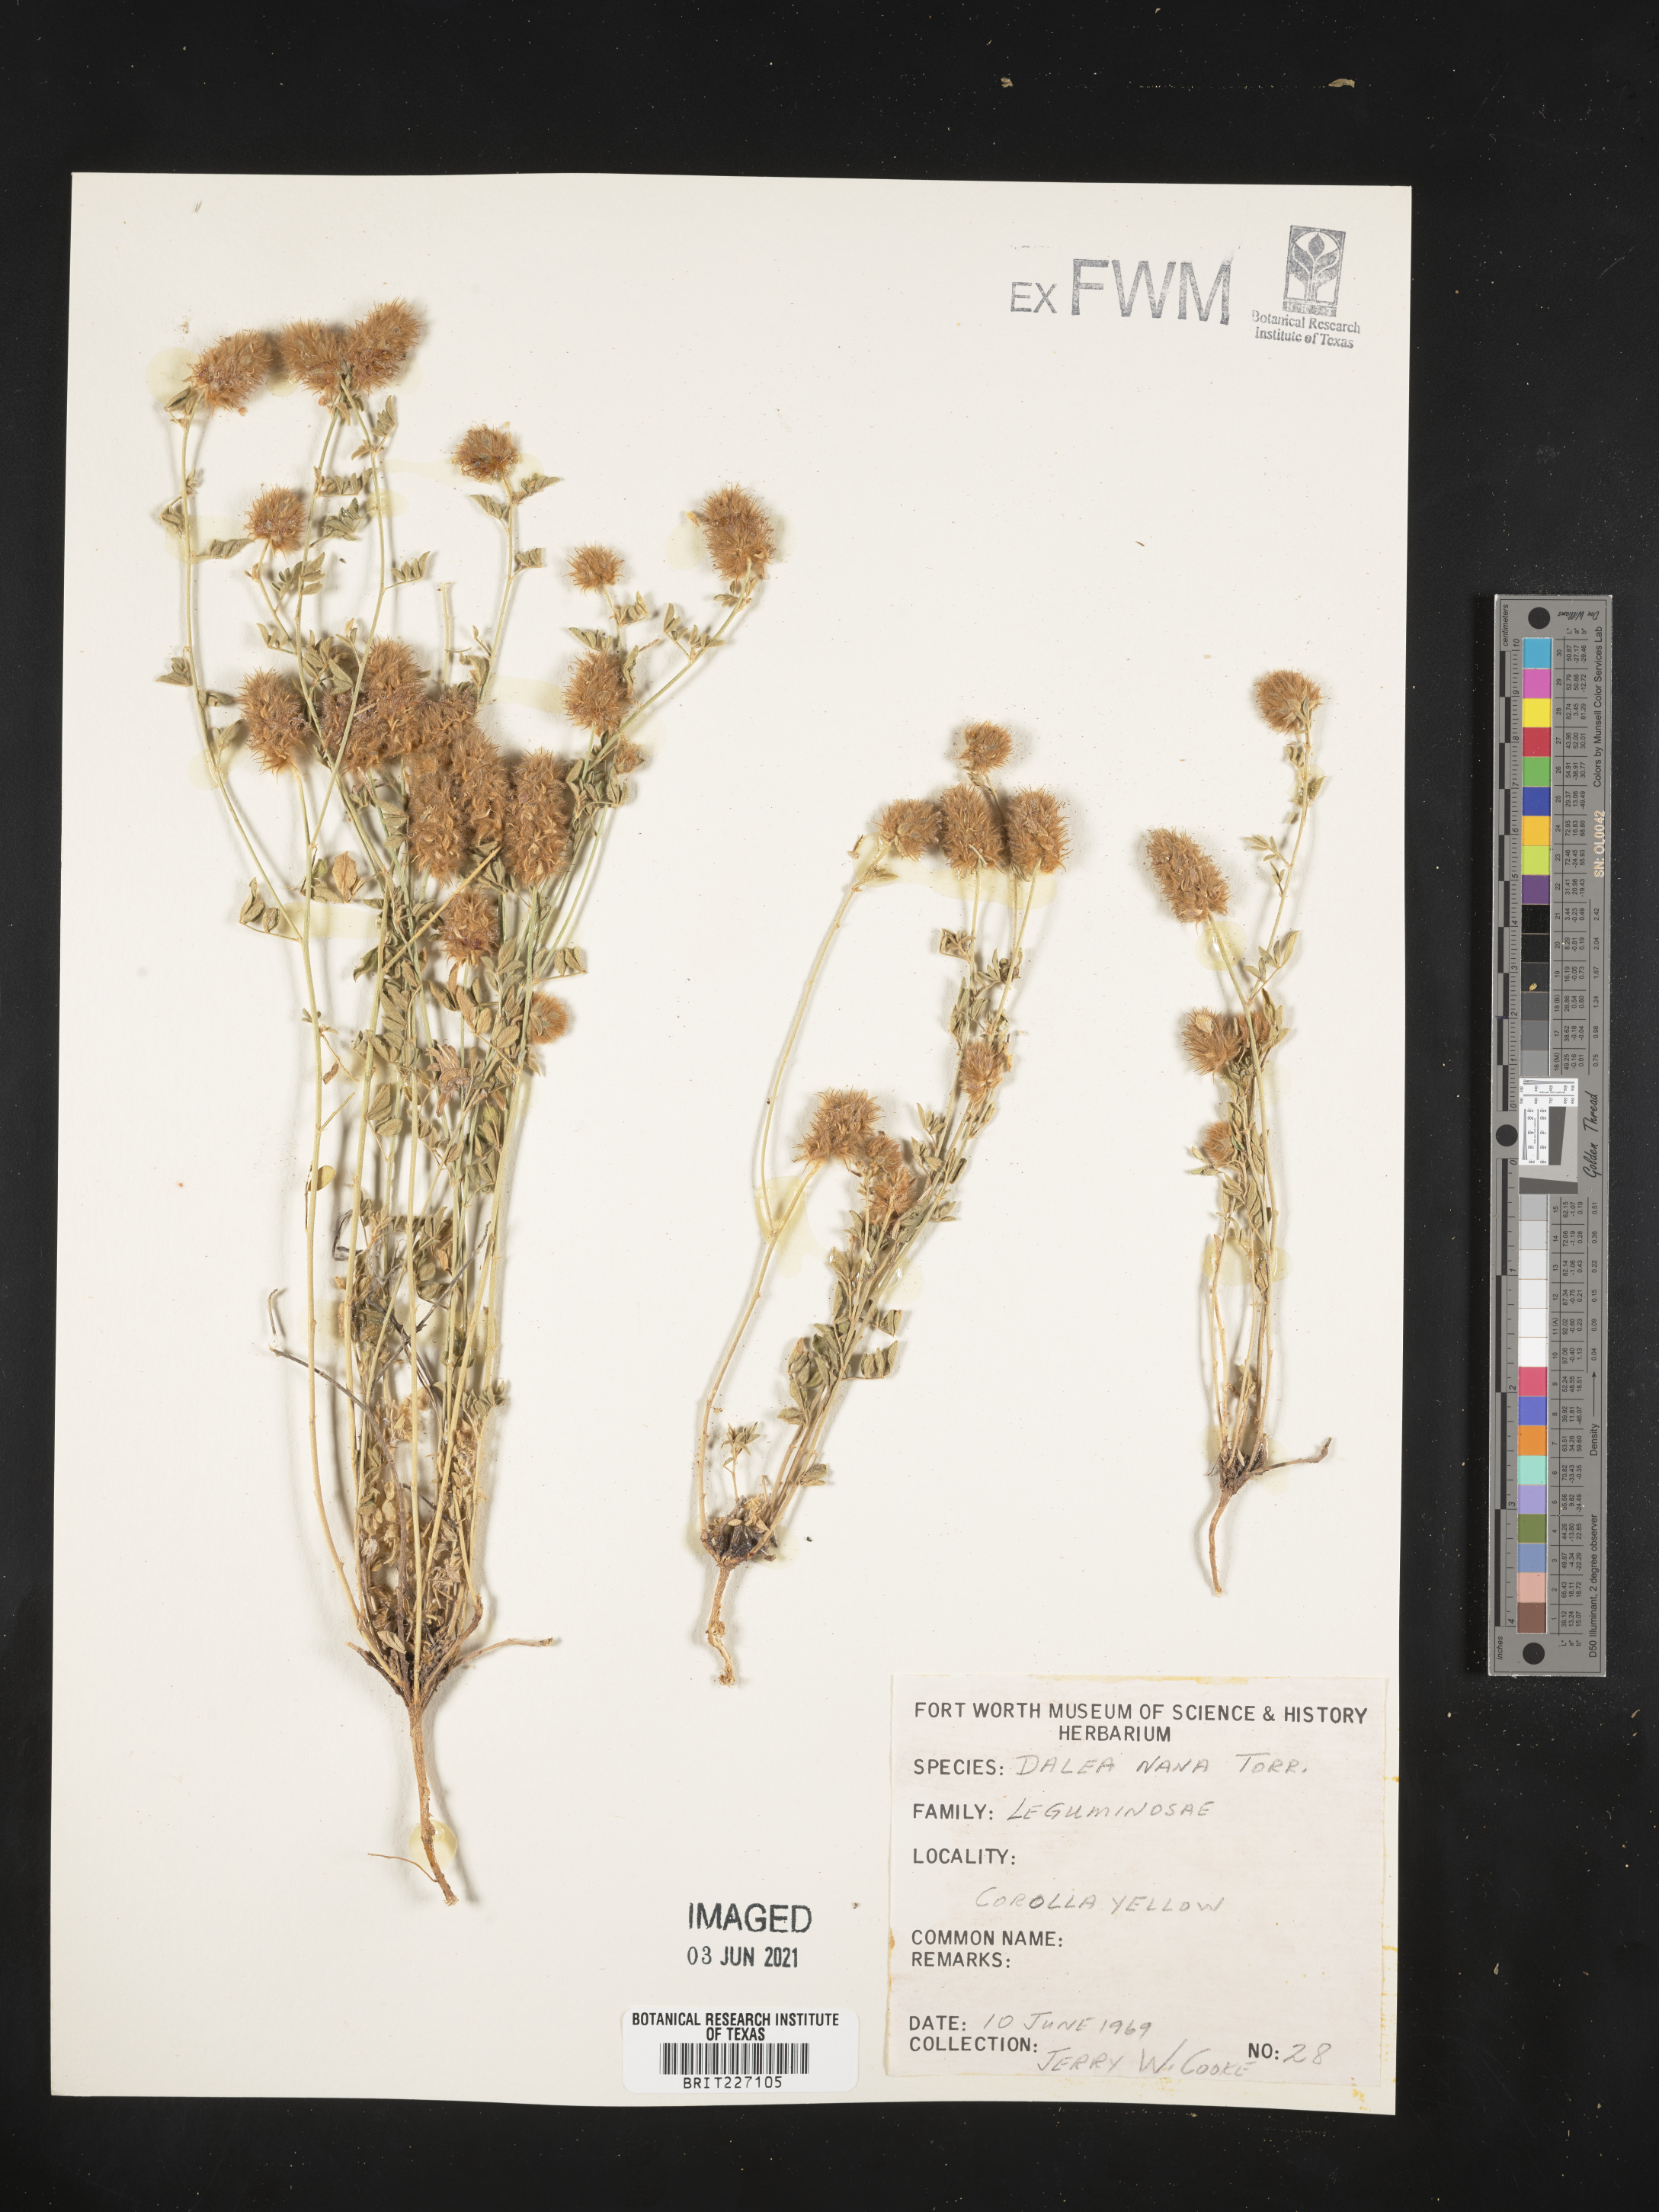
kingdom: Plantae
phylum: Tracheophyta
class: Magnoliopsida
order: Fabales
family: Fabaceae
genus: Dalea
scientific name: Dalea nana
